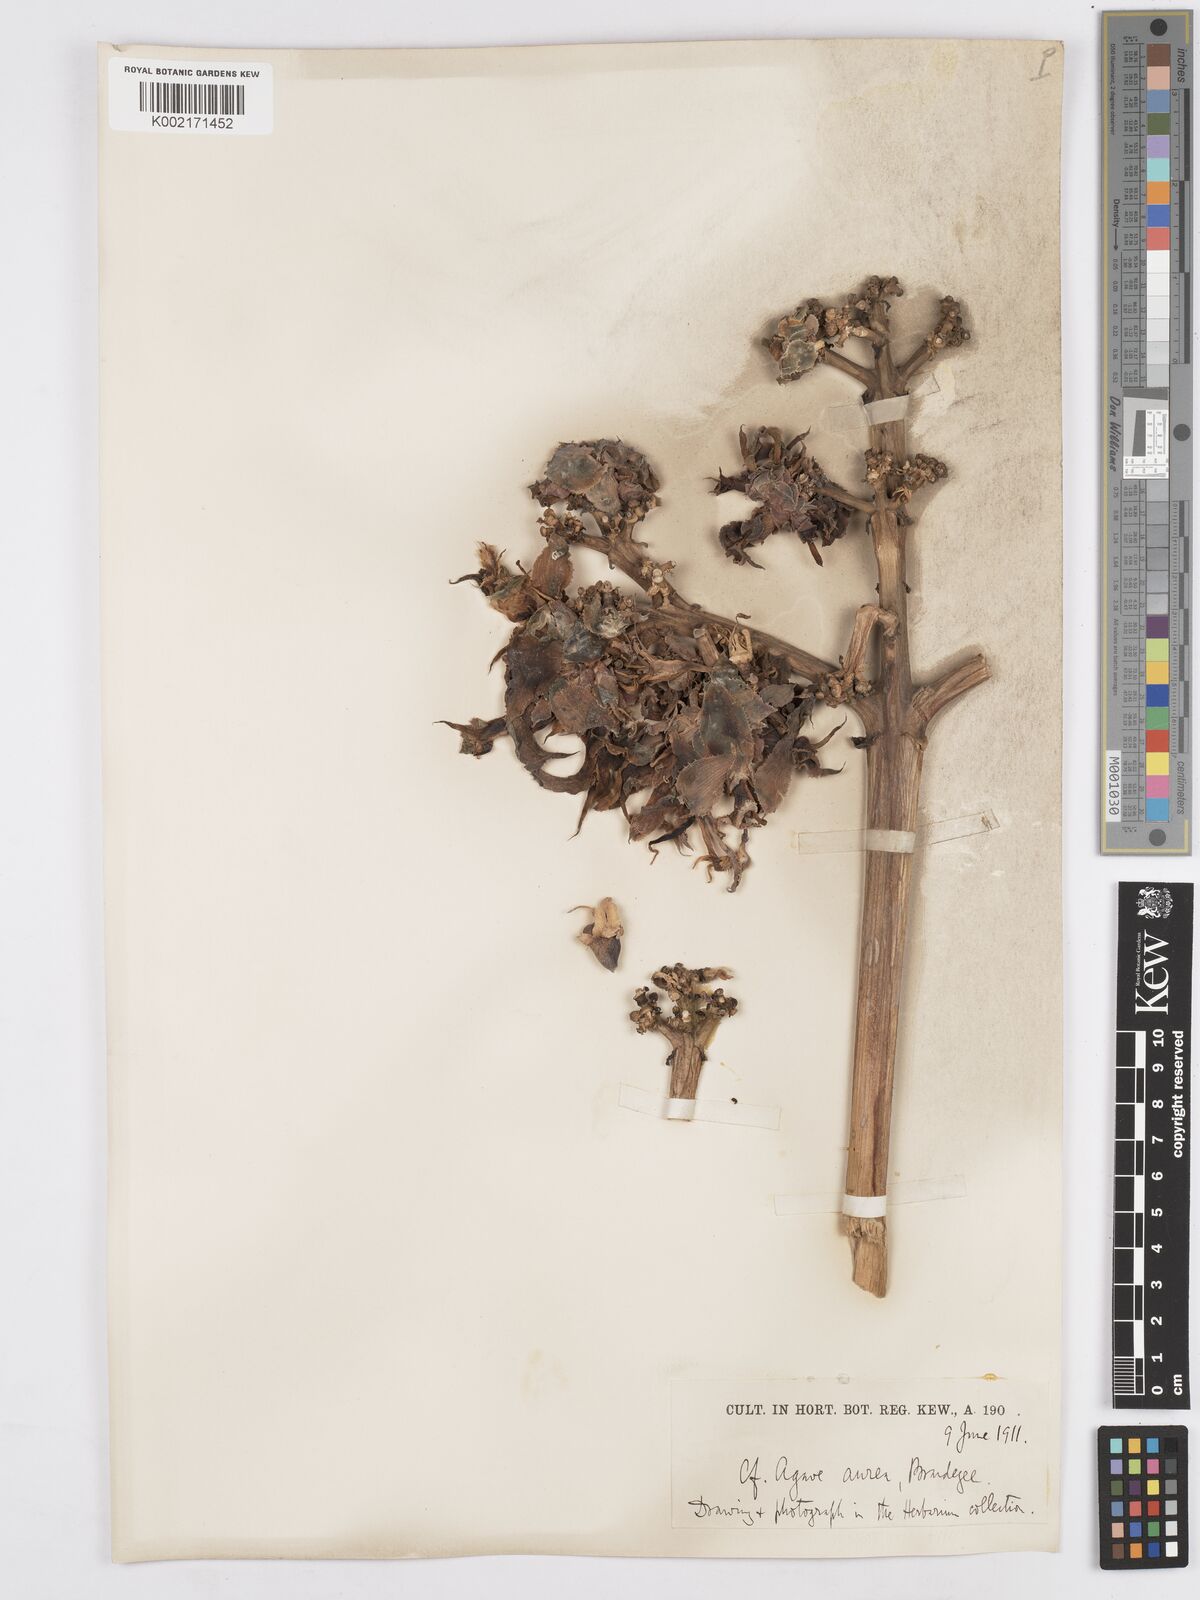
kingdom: Plantae
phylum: Tracheophyta
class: Liliopsida
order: Asparagales
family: Asparagaceae
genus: Agave
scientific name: Agave aurea
